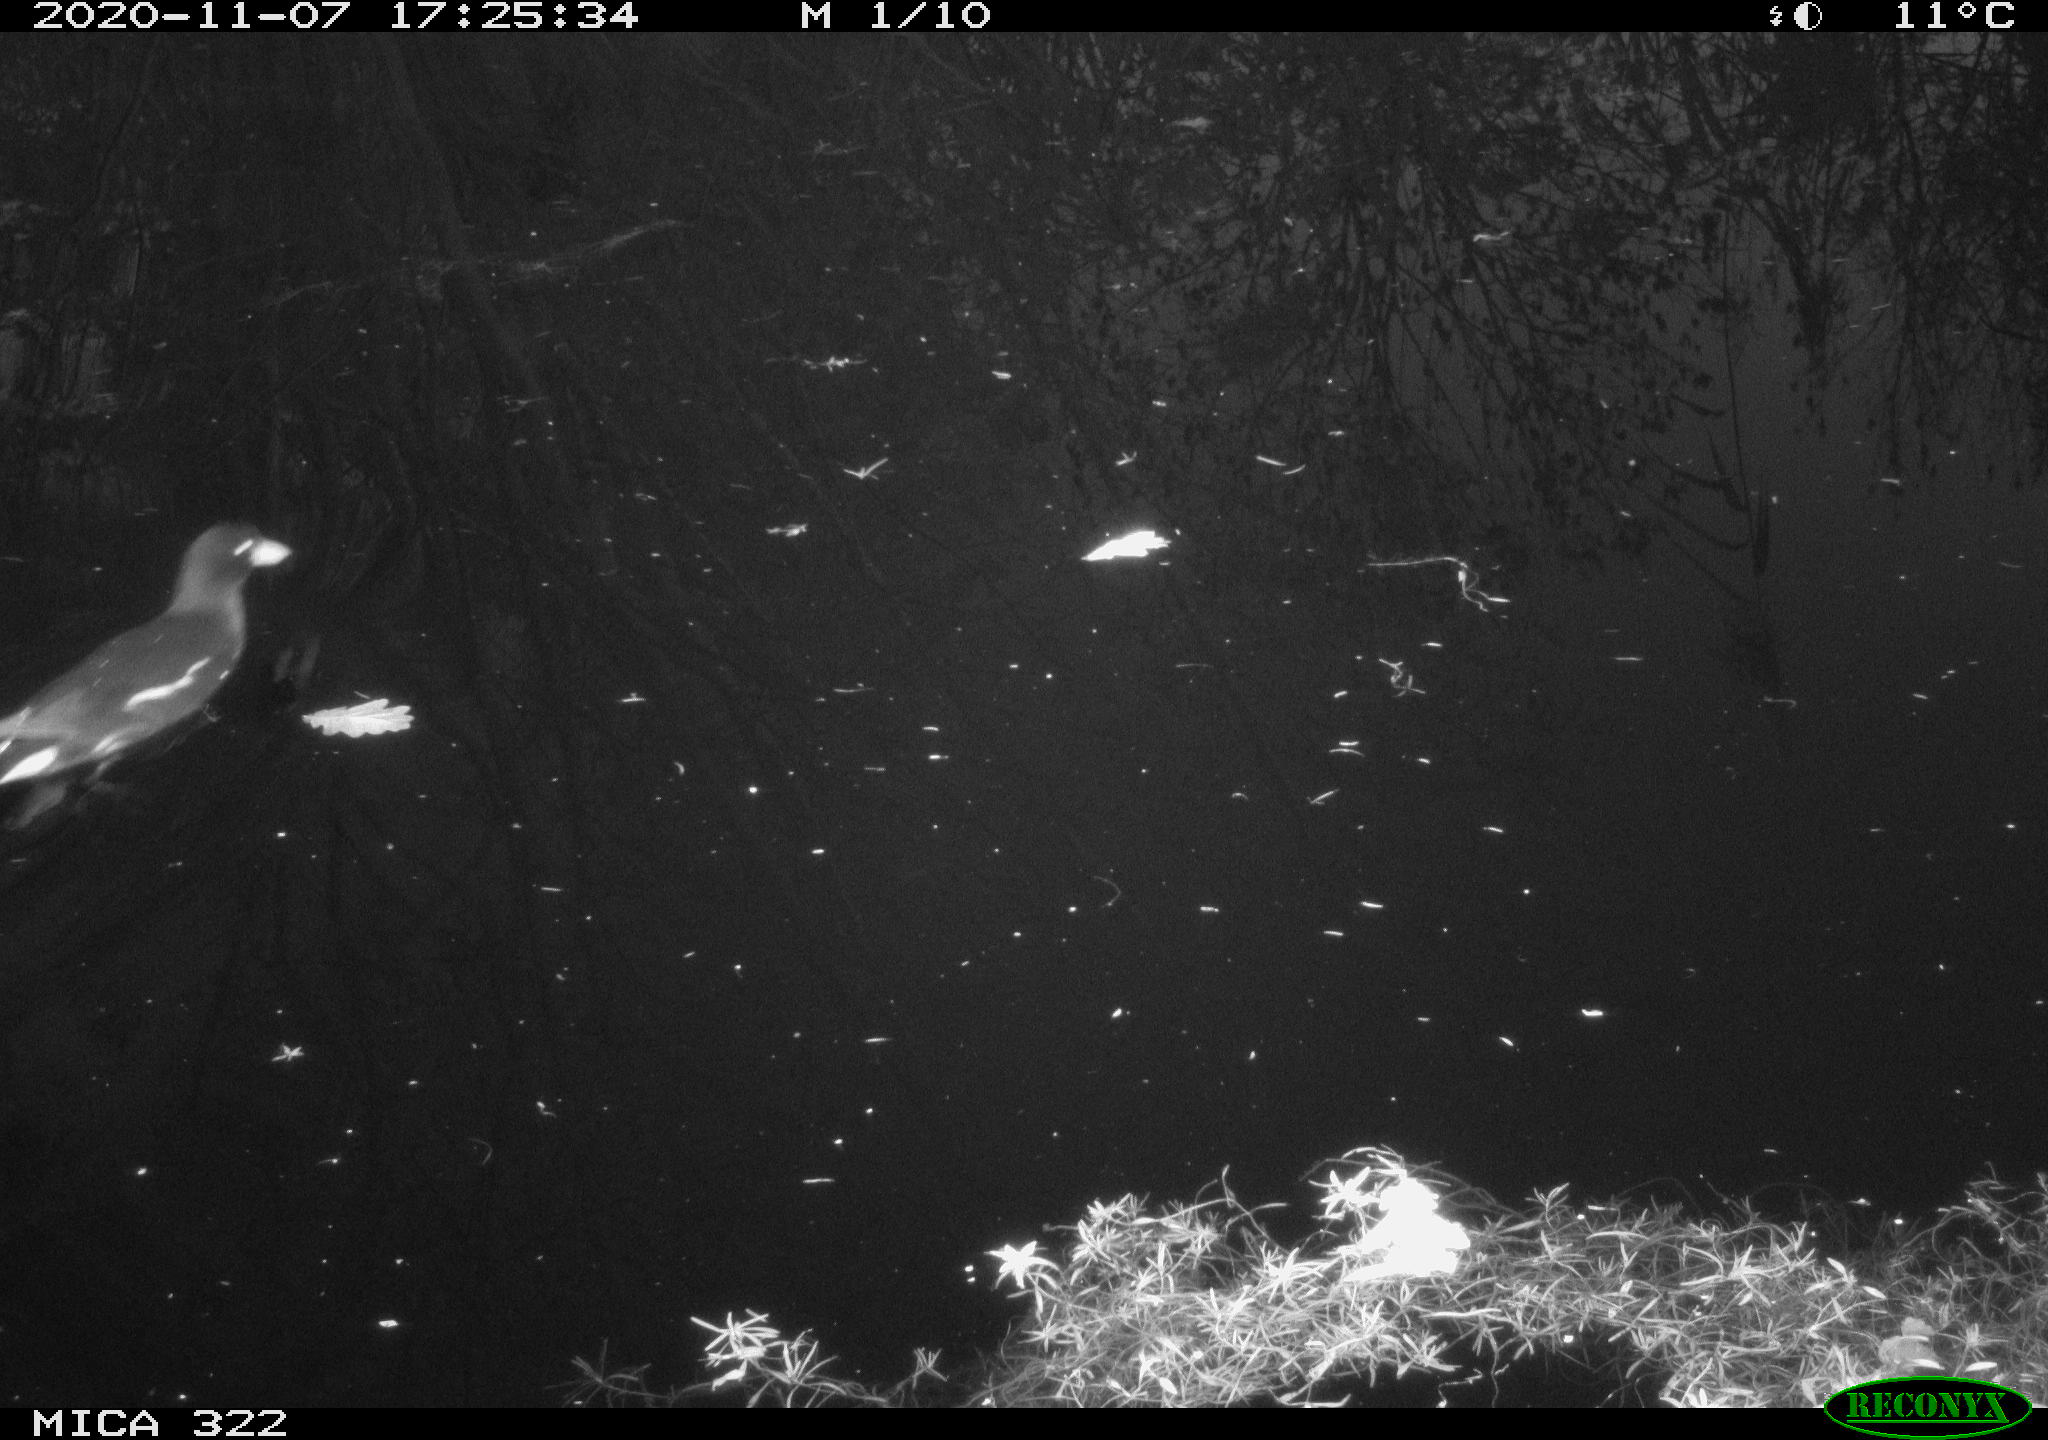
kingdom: Animalia
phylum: Chordata
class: Aves
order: Gruiformes
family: Rallidae
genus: Gallinula
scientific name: Gallinula chloropus
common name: Common moorhen
